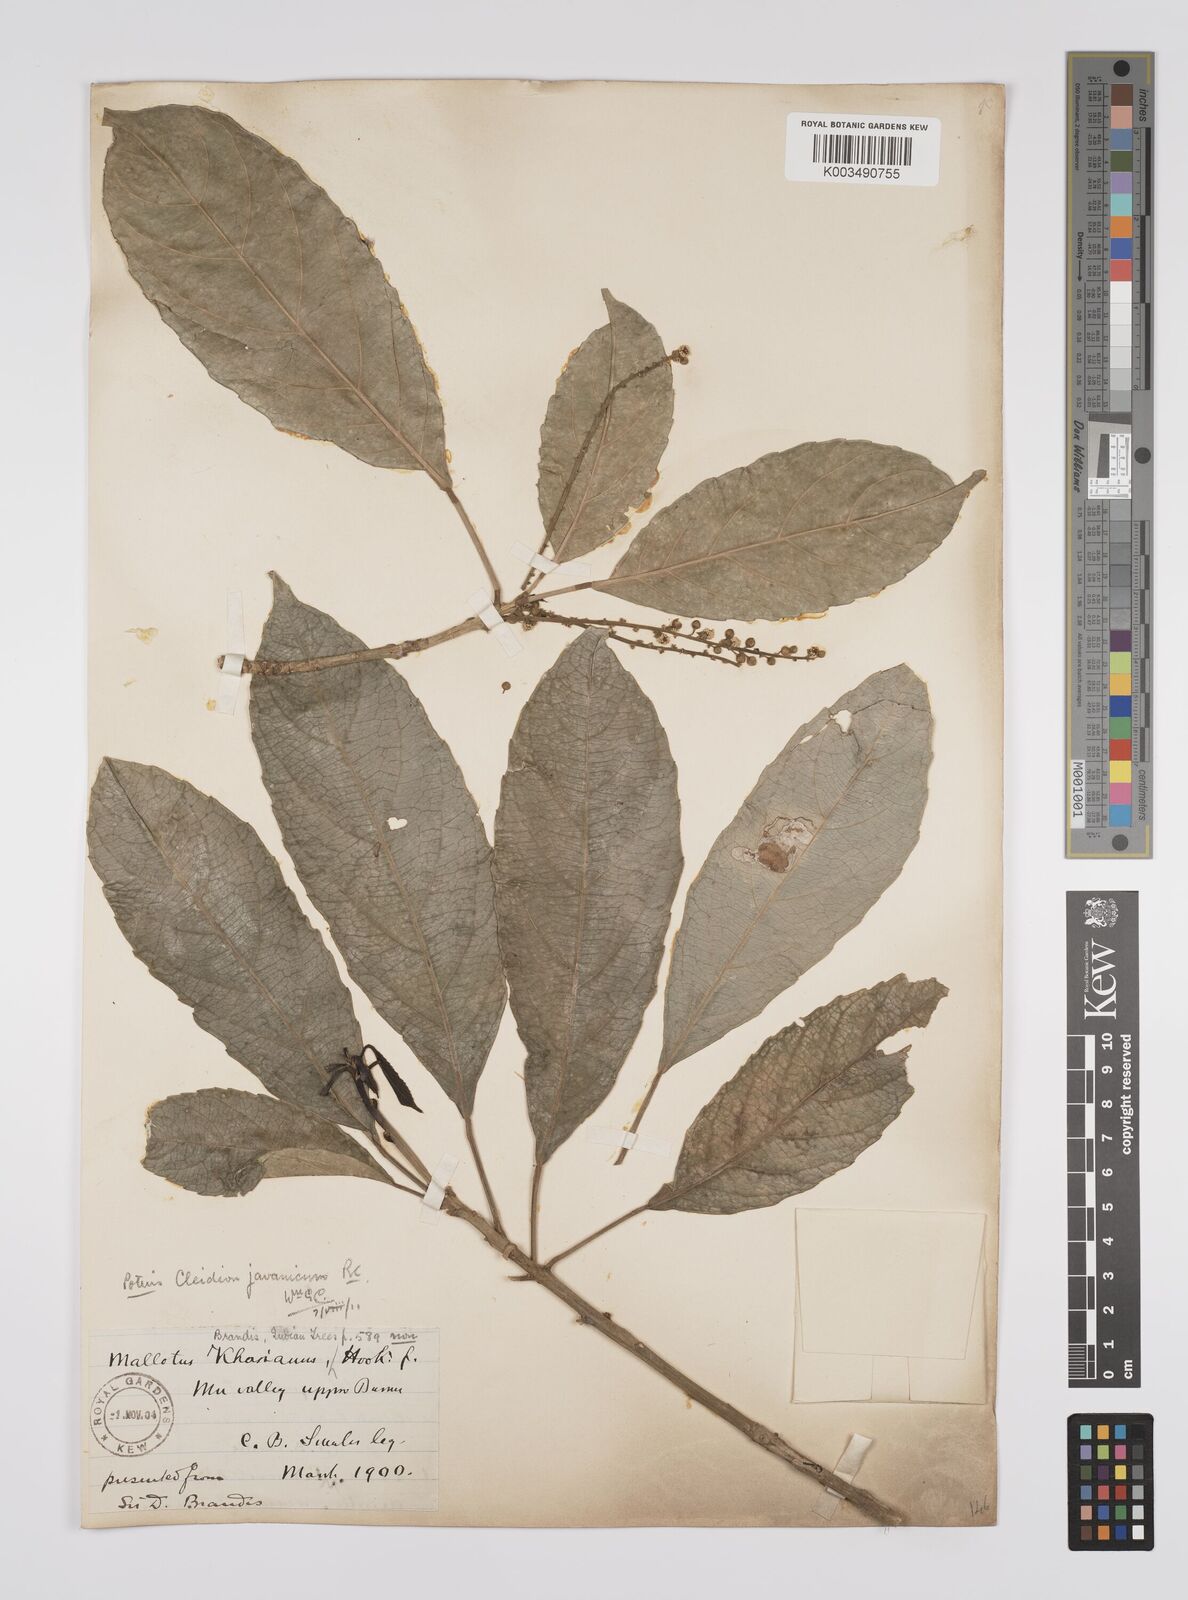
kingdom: Plantae
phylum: Tracheophyta
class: Magnoliopsida
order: Malpighiales
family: Euphorbiaceae
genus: Acalypha
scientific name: Acalypha spiciflora
